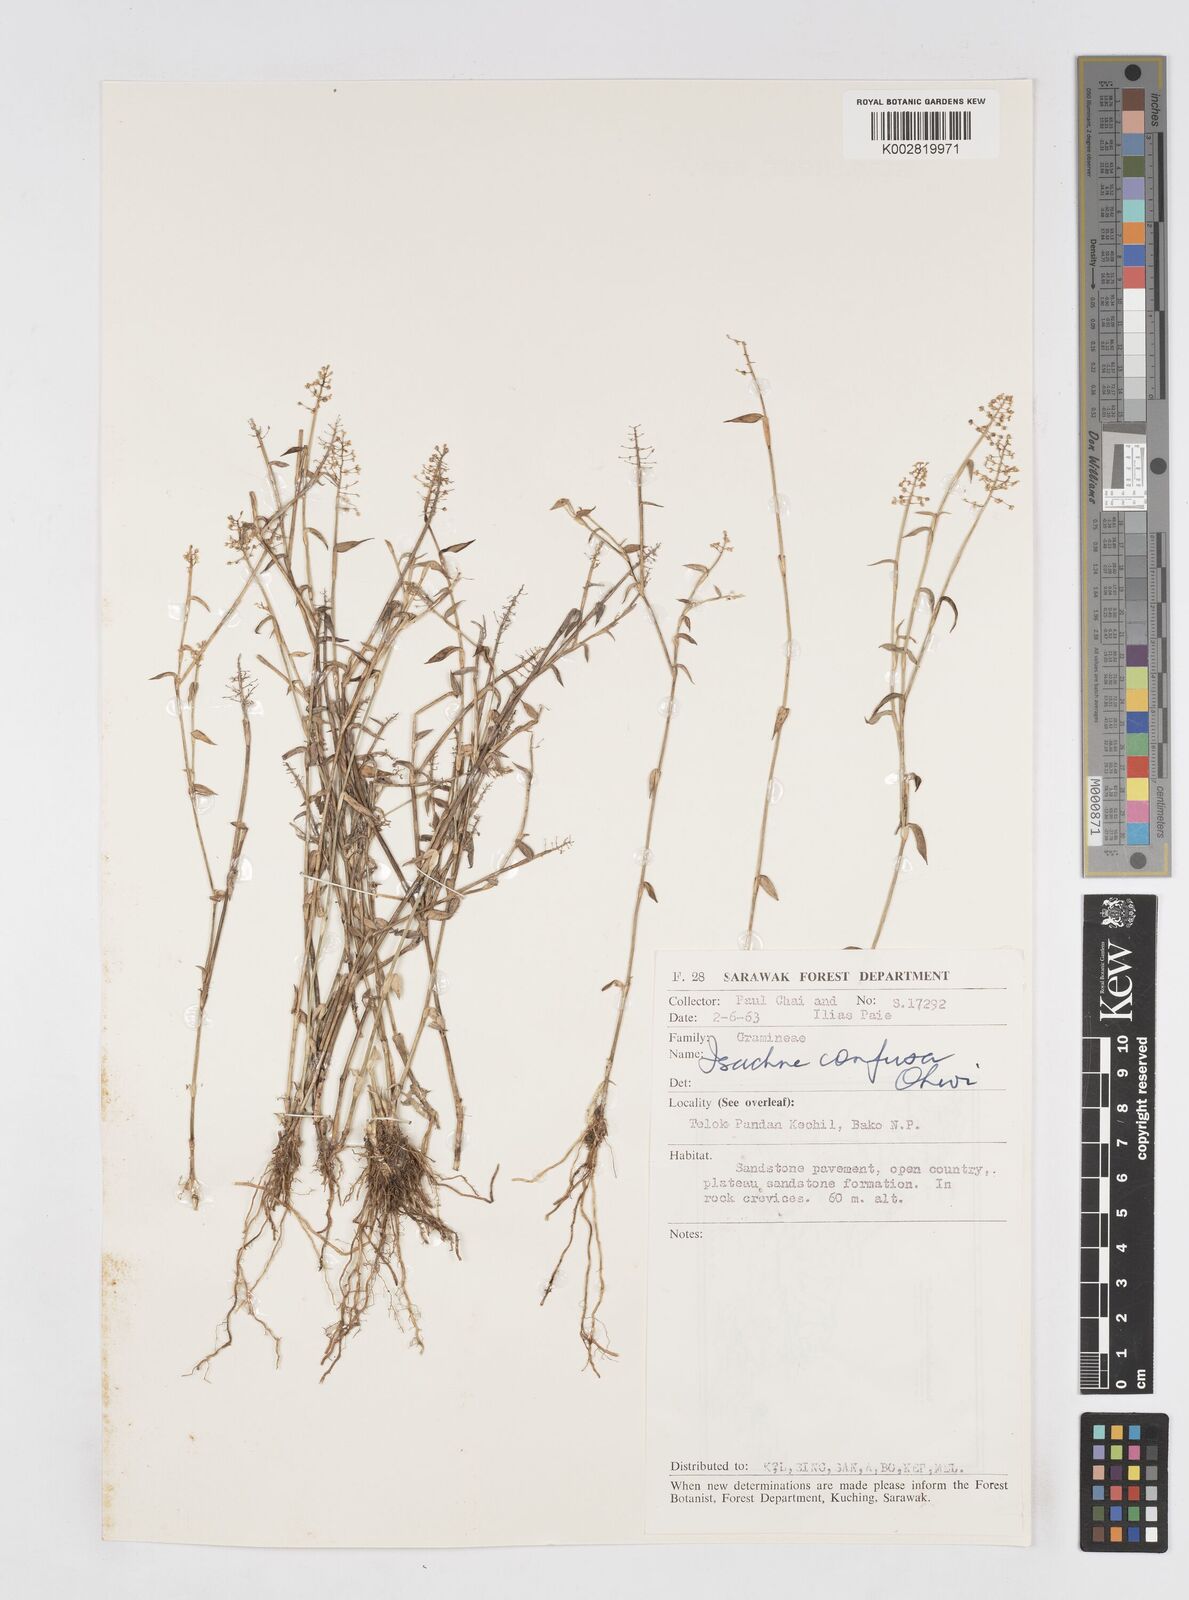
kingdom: Plantae
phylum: Tracheophyta
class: Liliopsida
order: Poales
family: Poaceae
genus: Isachne
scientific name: Isachne confusa
